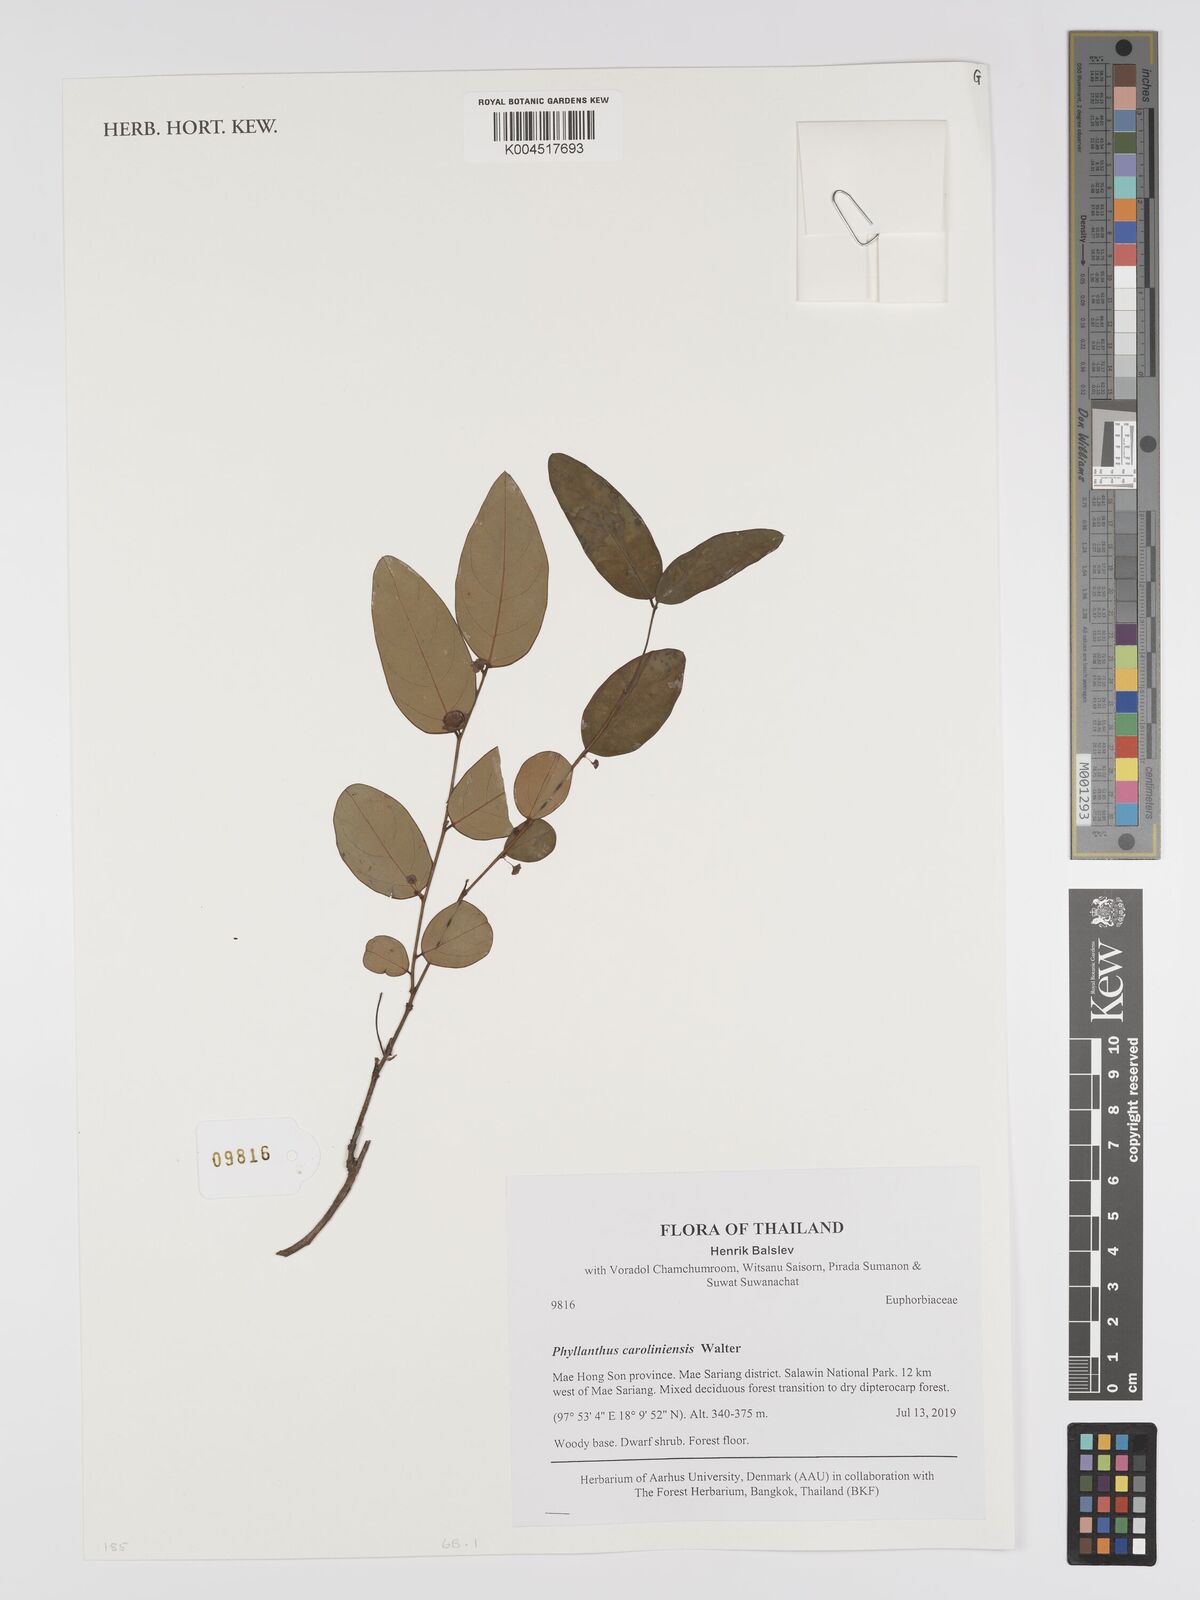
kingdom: Plantae
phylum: Tracheophyta
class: Magnoliopsida
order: Malpighiales
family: Phyllanthaceae
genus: Phyllanthus
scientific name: Phyllanthus caroliniensis
